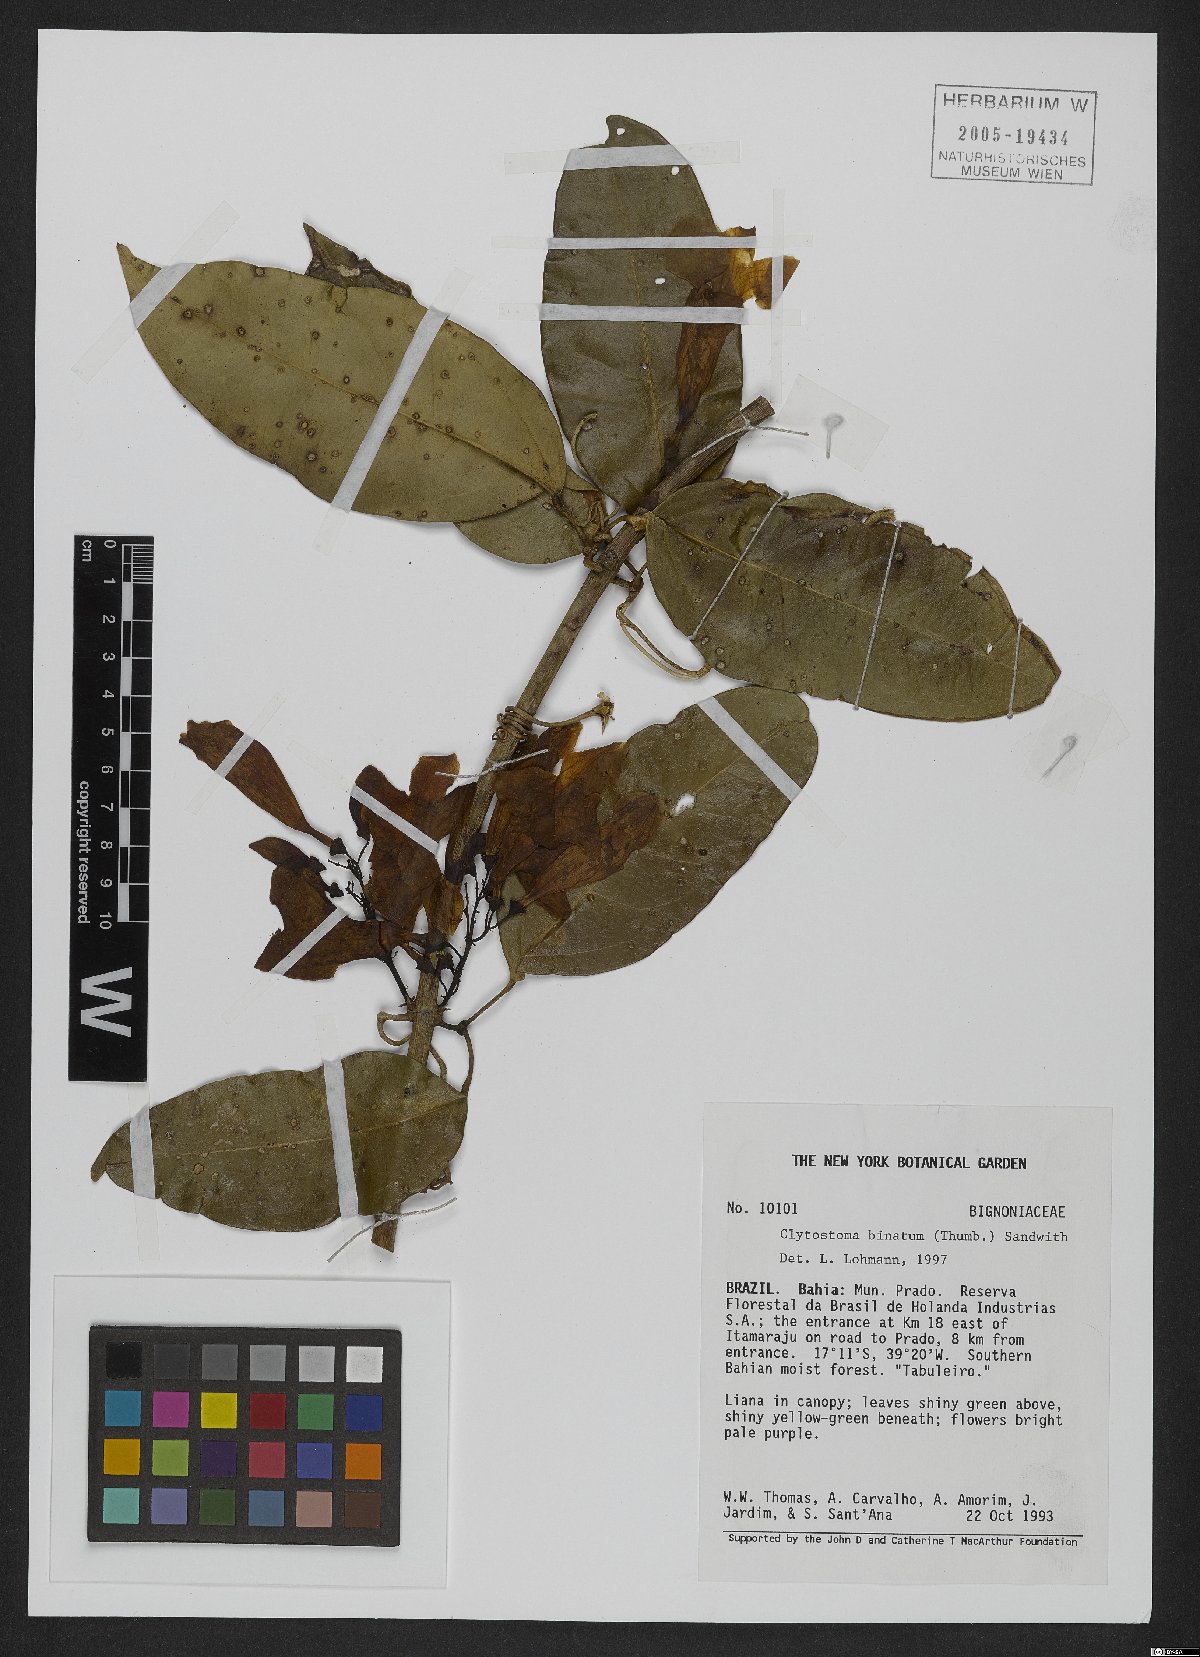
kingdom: Plantae
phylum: Tracheophyta
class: Magnoliopsida
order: Lamiales
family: Bignoniaceae
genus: Bignonia
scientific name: Bignonia binata
